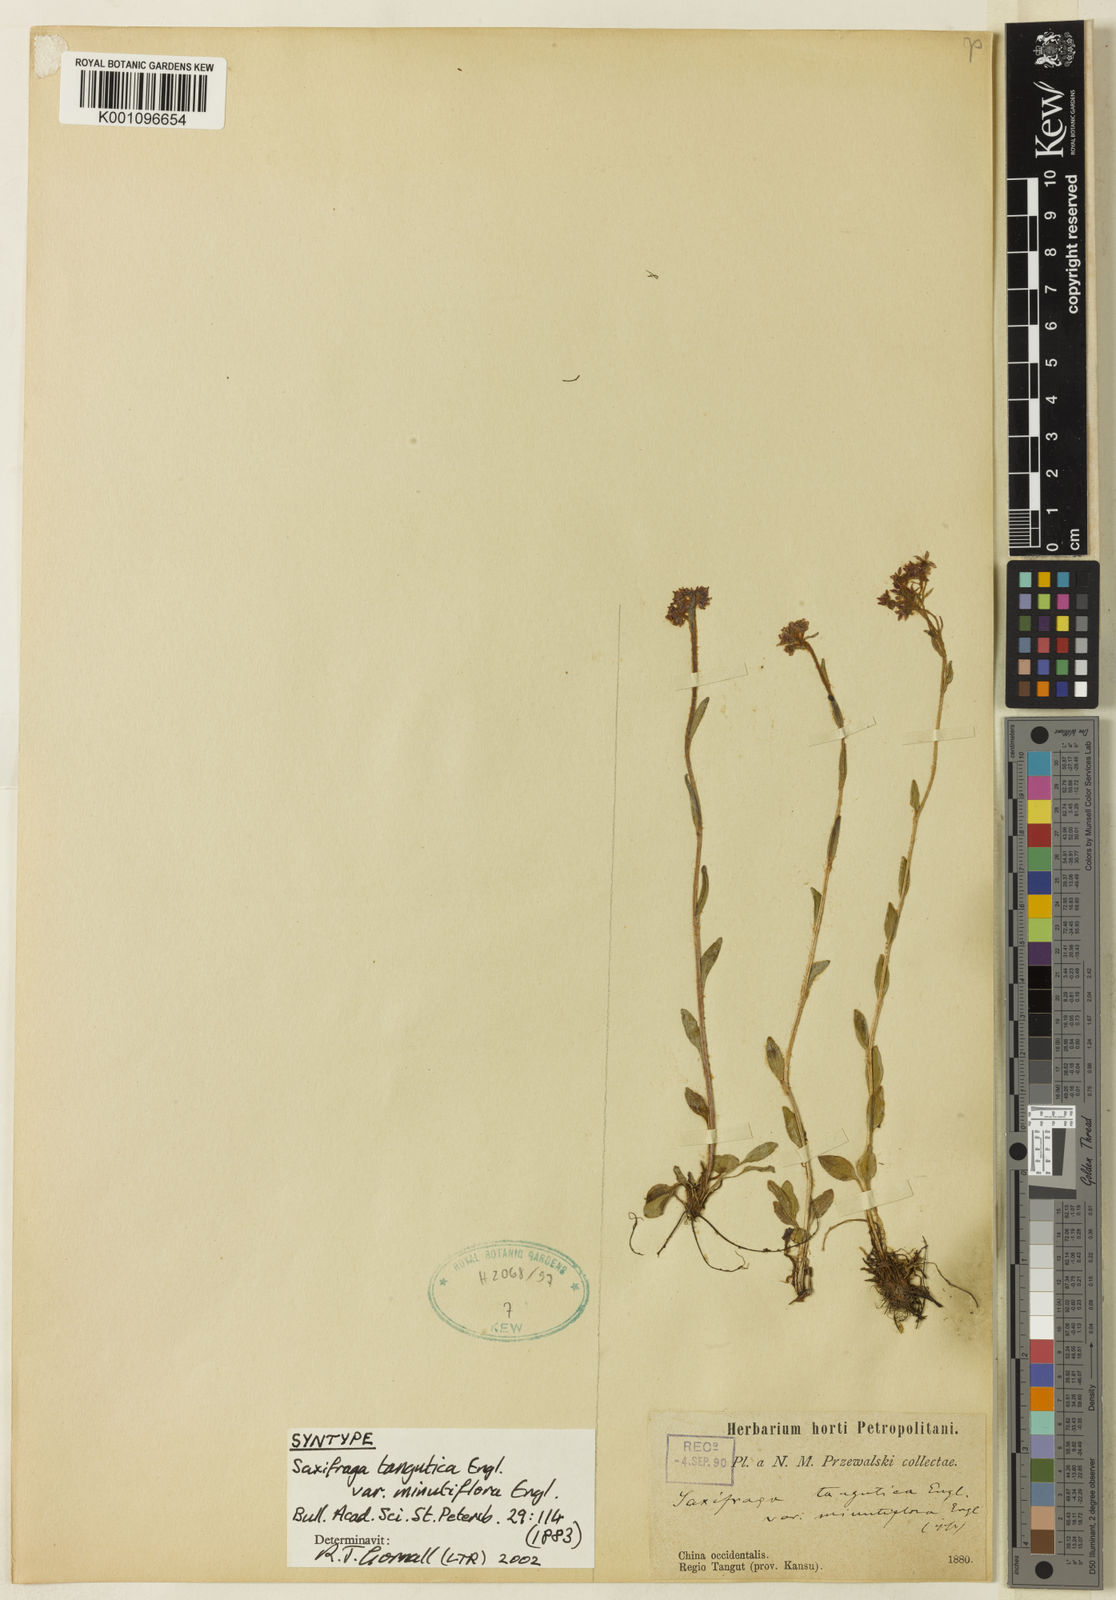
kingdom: Plantae
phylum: Tracheophyta
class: Magnoliopsida
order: Saxifragales
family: Saxifragaceae
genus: Saxifraga
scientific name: Saxifraga tangutica
